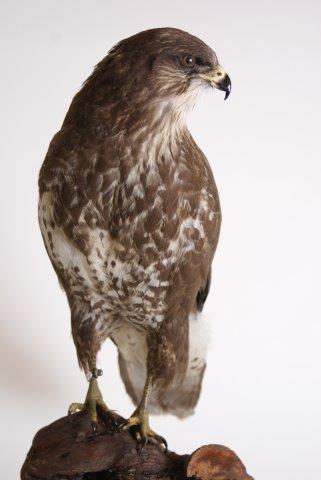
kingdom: Animalia
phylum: Chordata
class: Aves
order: Accipitriformes
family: Accipitridae
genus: Buteo
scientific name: Buteo buteo
